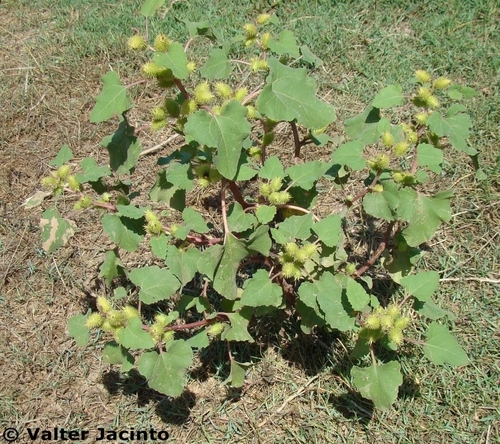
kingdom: Plantae
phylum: Tracheophyta
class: Magnoliopsida
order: Asterales
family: Asteraceae
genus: Xanthium
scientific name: Xanthium strumarium
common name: Rough cocklebur
